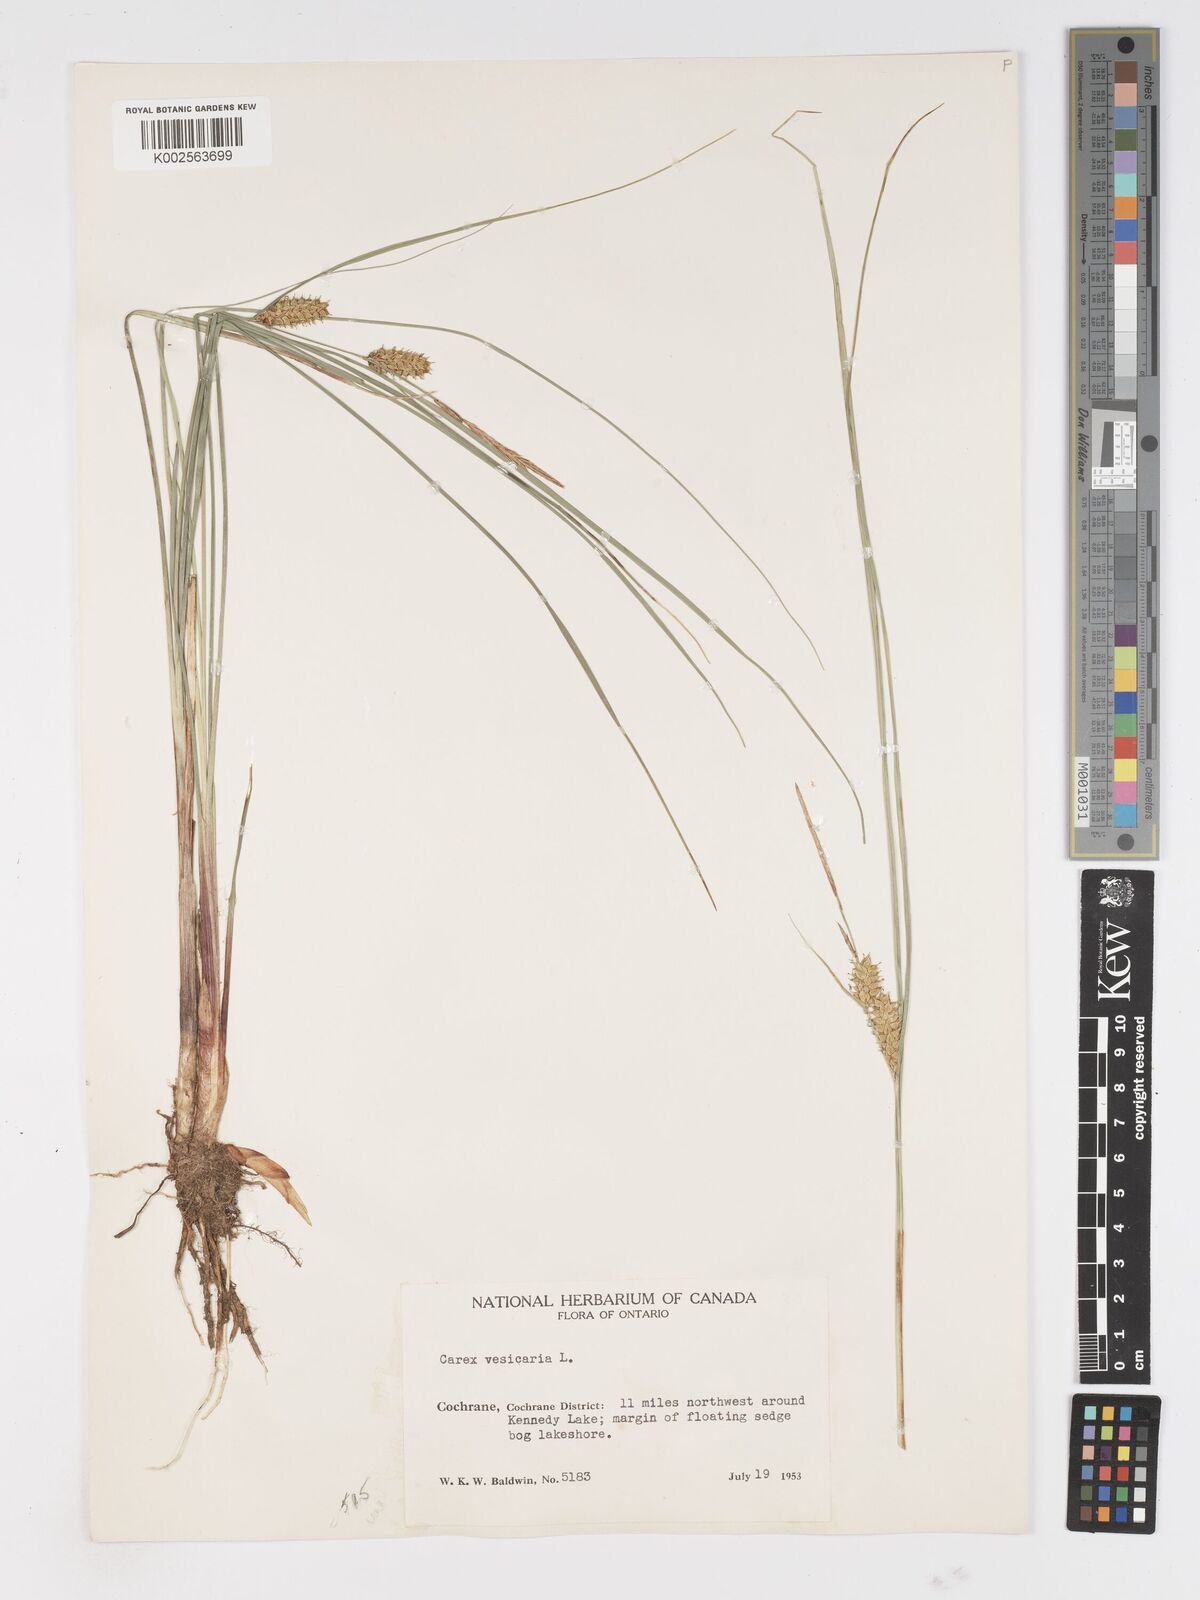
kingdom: Plantae
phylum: Tracheophyta
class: Liliopsida
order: Poales
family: Cyperaceae
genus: Carex
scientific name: Carex vesicaria
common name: Bladder-sedge
